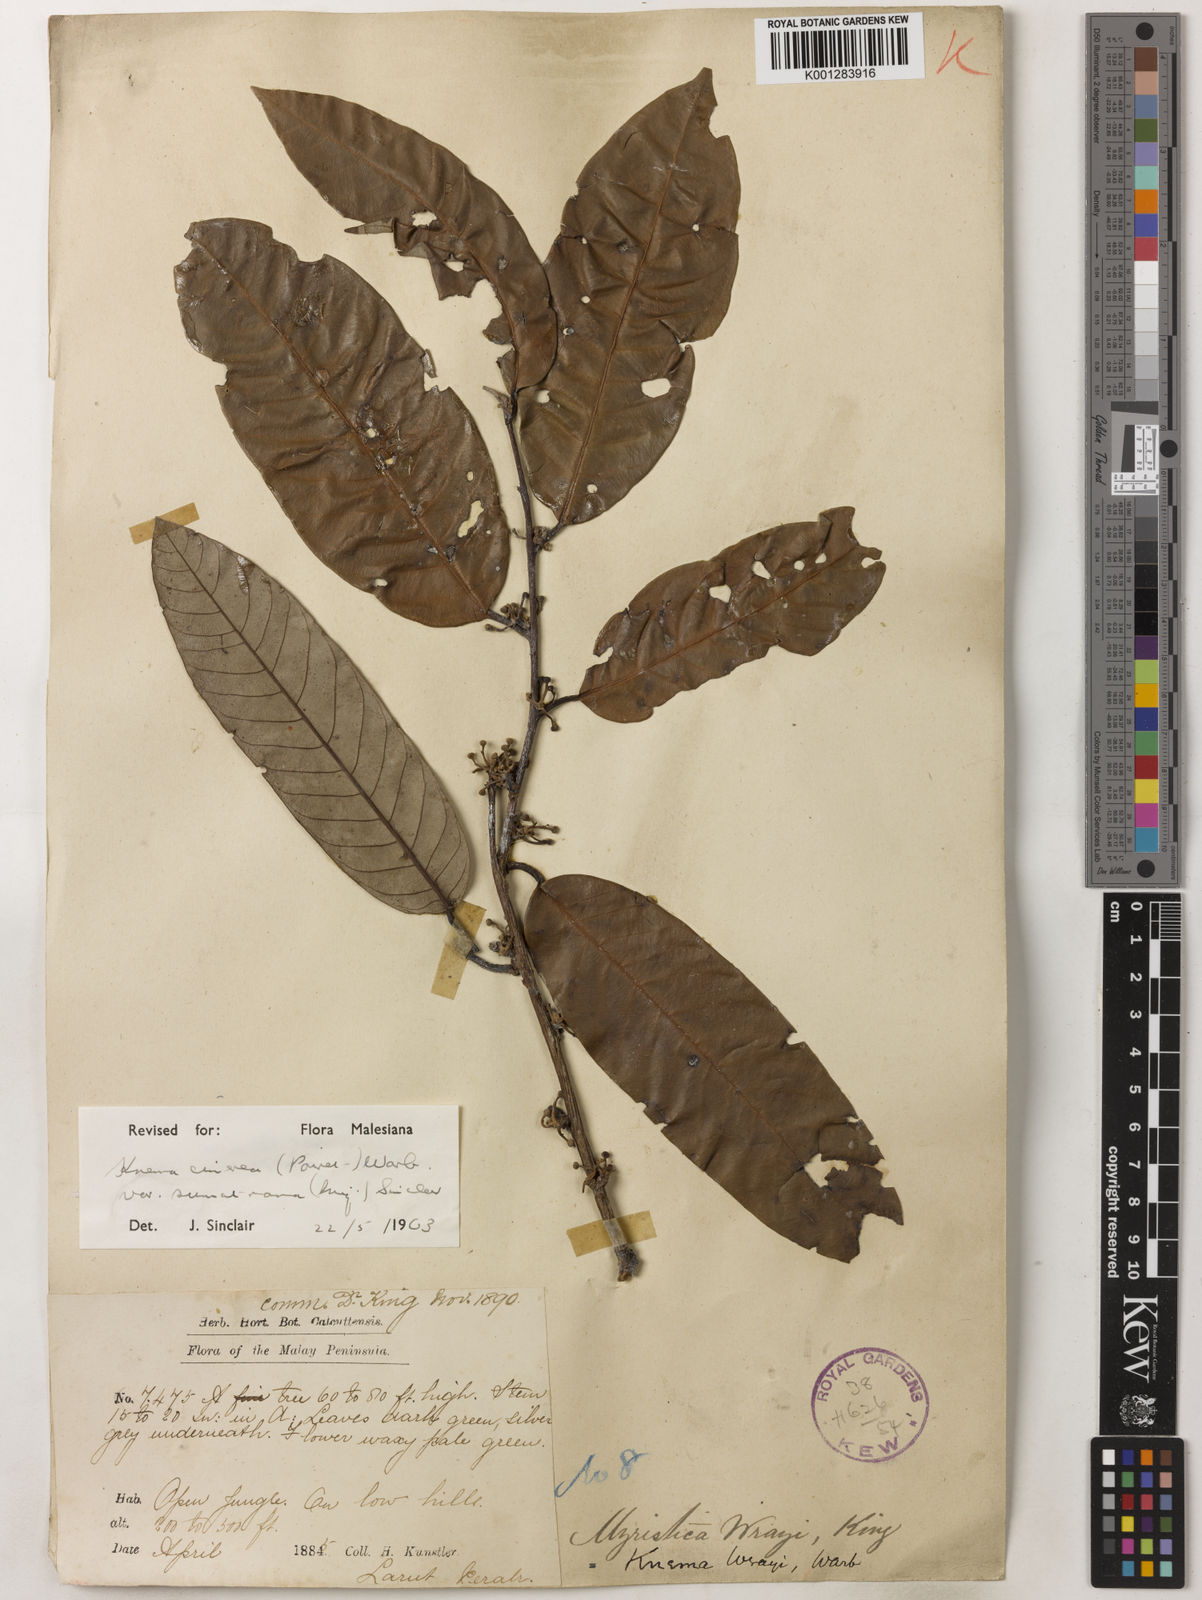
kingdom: Plantae
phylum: Tracheophyta
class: Magnoliopsida
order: Magnoliales
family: Myristicaceae
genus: Knema
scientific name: Knema
